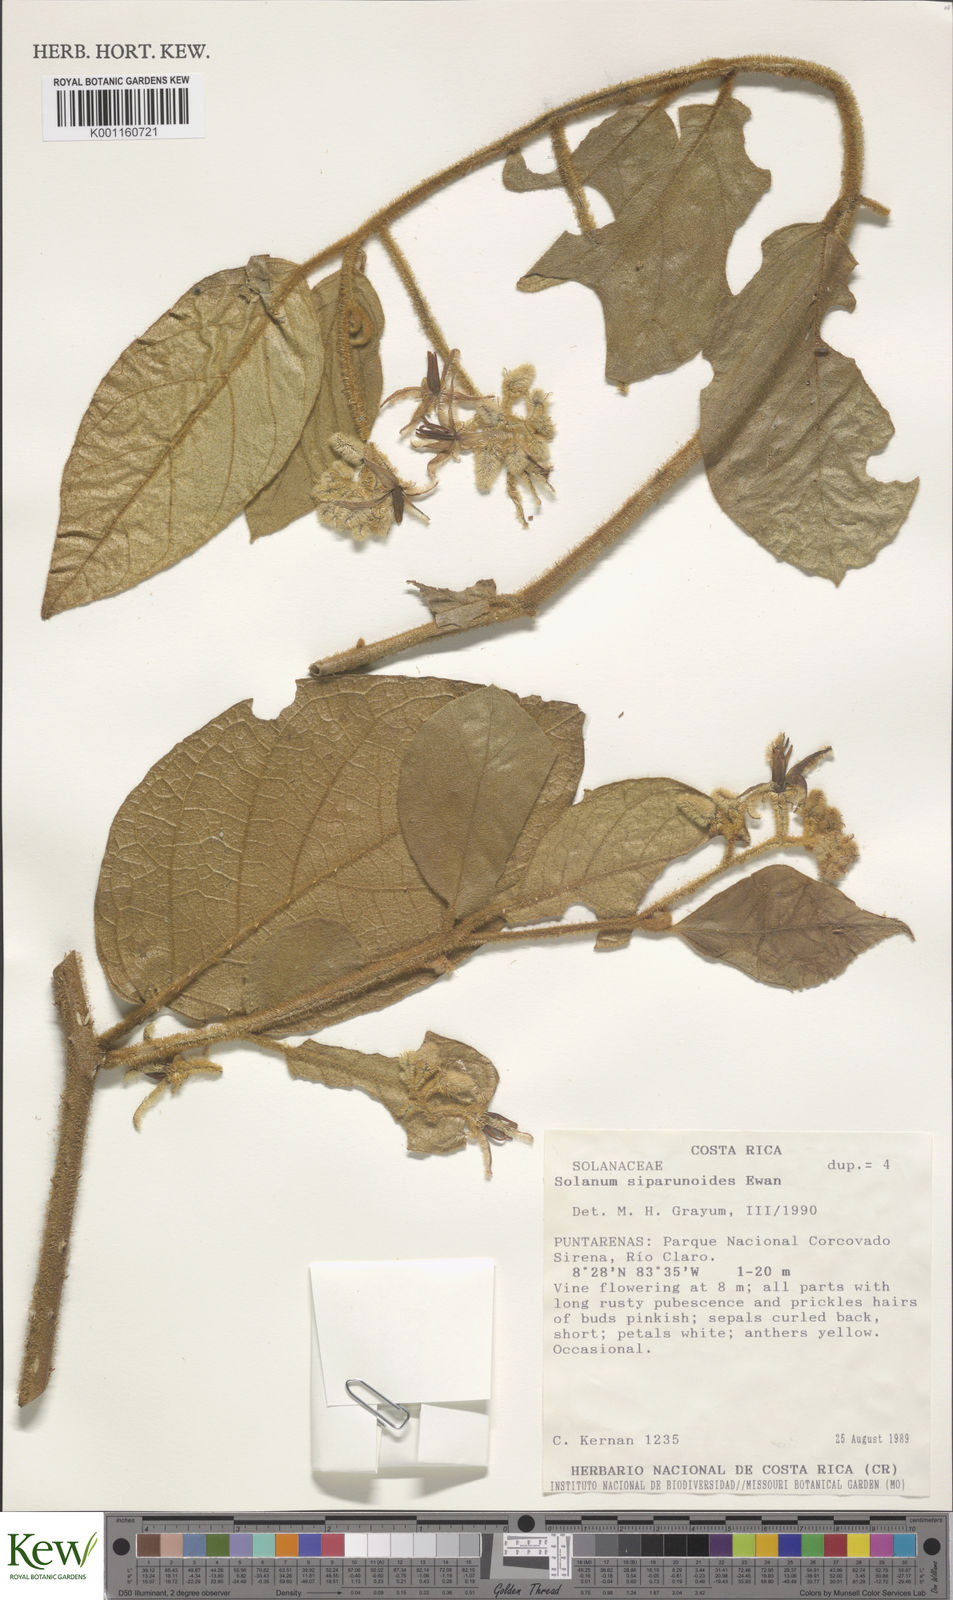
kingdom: Plantae
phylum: Tracheophyta
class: Magnoliopsida
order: Solanales
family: Solanaceae
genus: Solanum
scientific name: Solanum aturense
